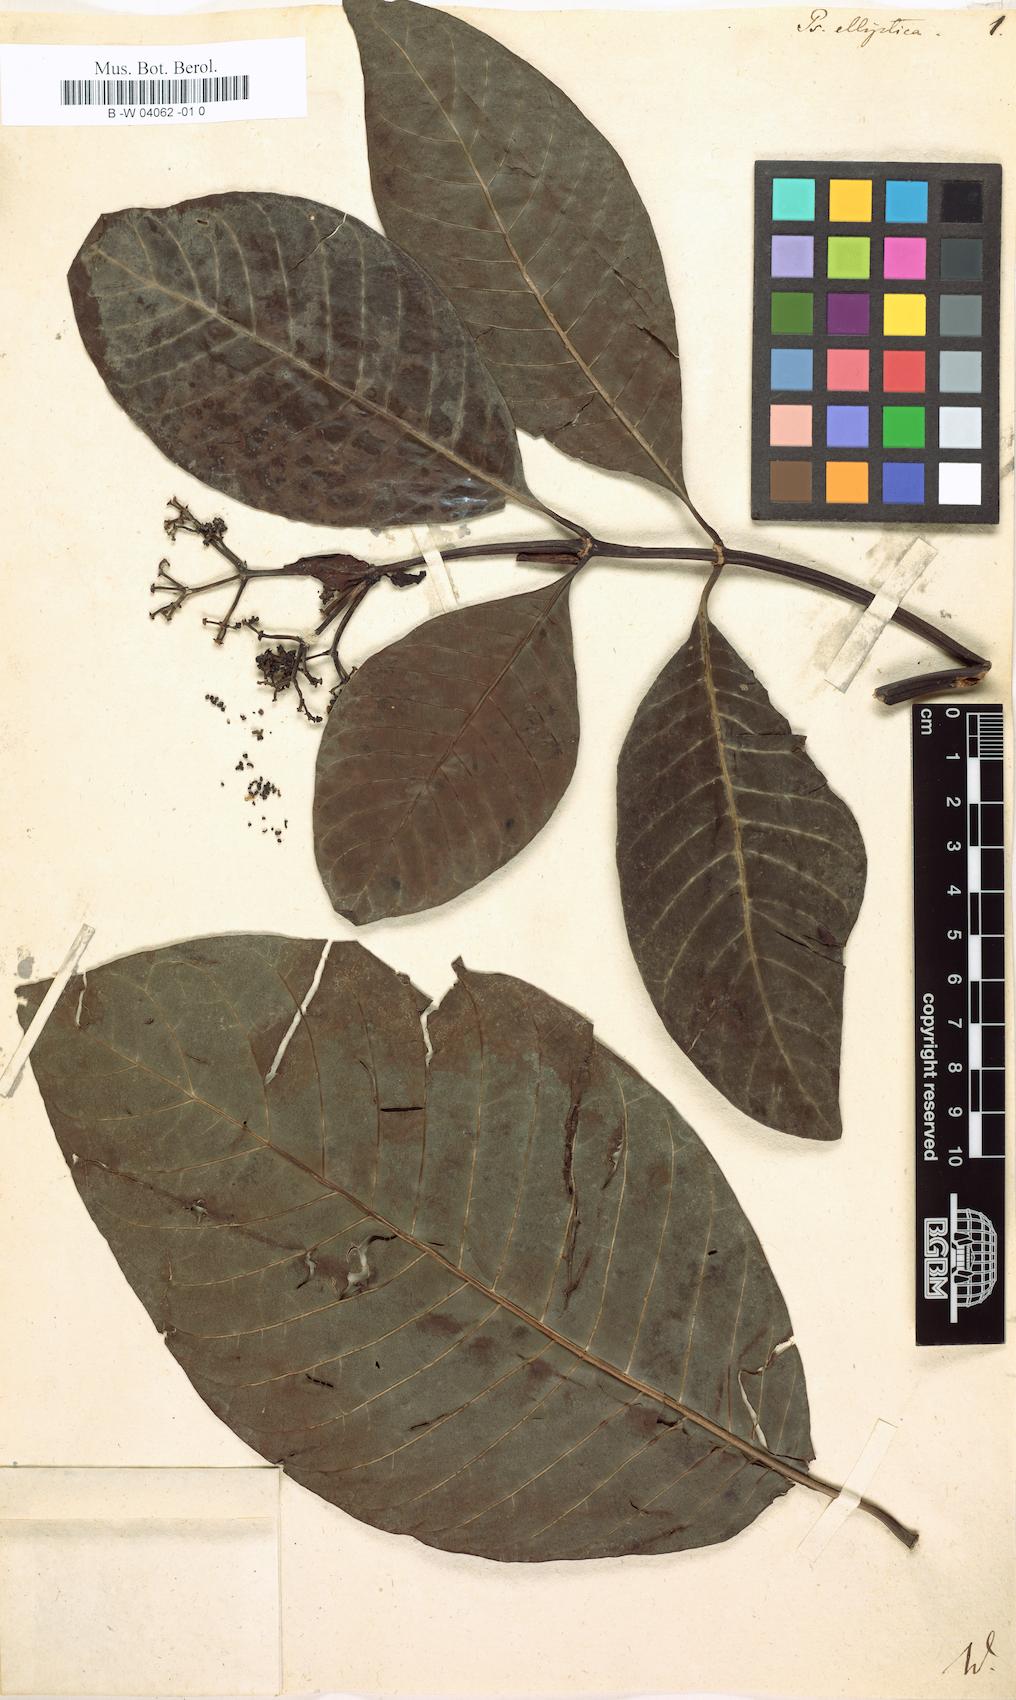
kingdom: Plantae
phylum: Tracheophyta
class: Magnoliopsida
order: Gentianales
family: Rubiaceae
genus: Psychotria
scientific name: Psychotria guianensis
